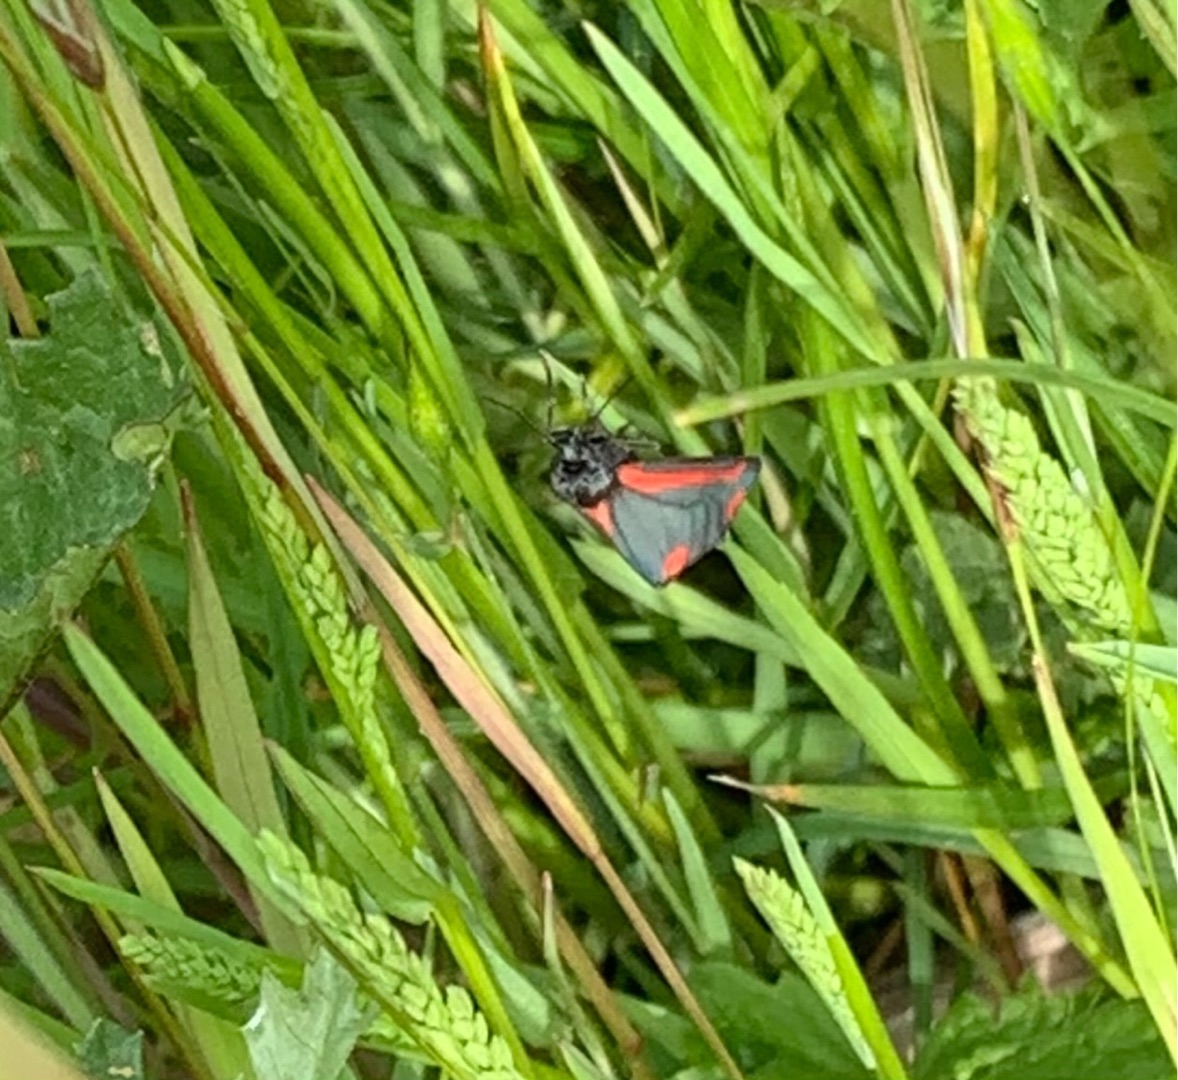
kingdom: Animalia
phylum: Arthropoda
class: Insecta
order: Lepidoptera
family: Erebidae
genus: Tyria
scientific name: Tyria jacobaeae
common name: Blodplet
